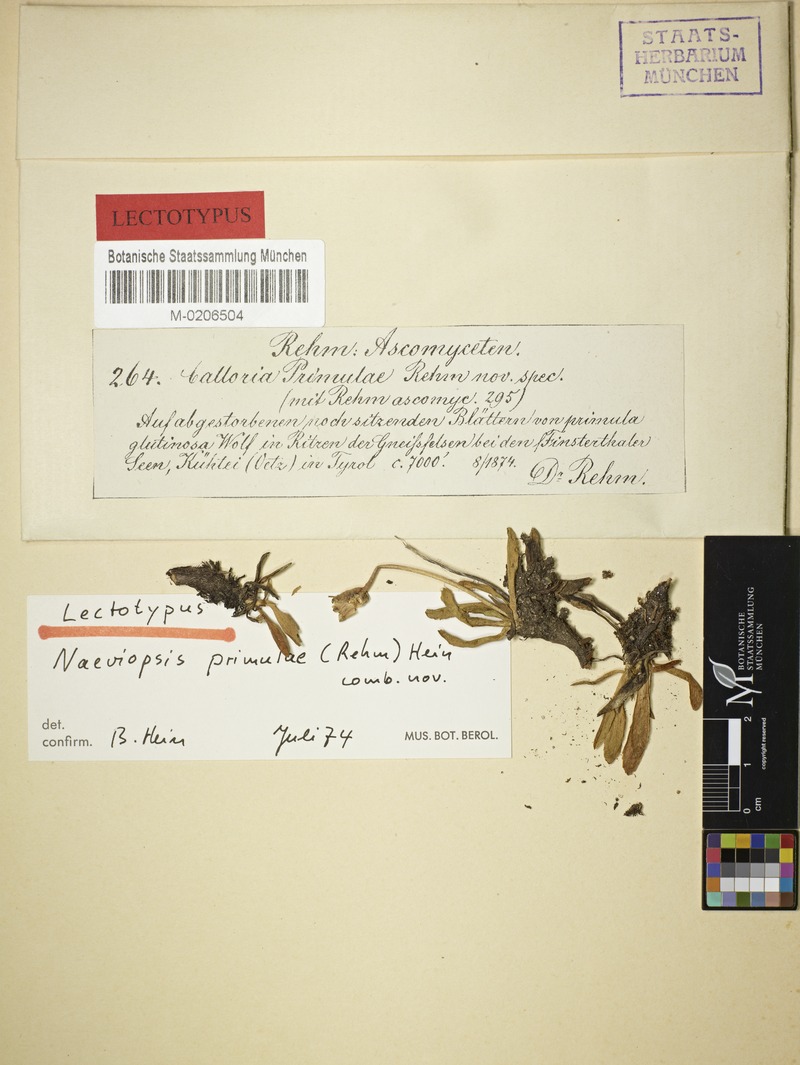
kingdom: Fungi
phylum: Ascomycota
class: Leotiomycetes
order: Helotiales
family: Calloriaceae
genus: Naeviopsis
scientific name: Naeviopsis primulae
